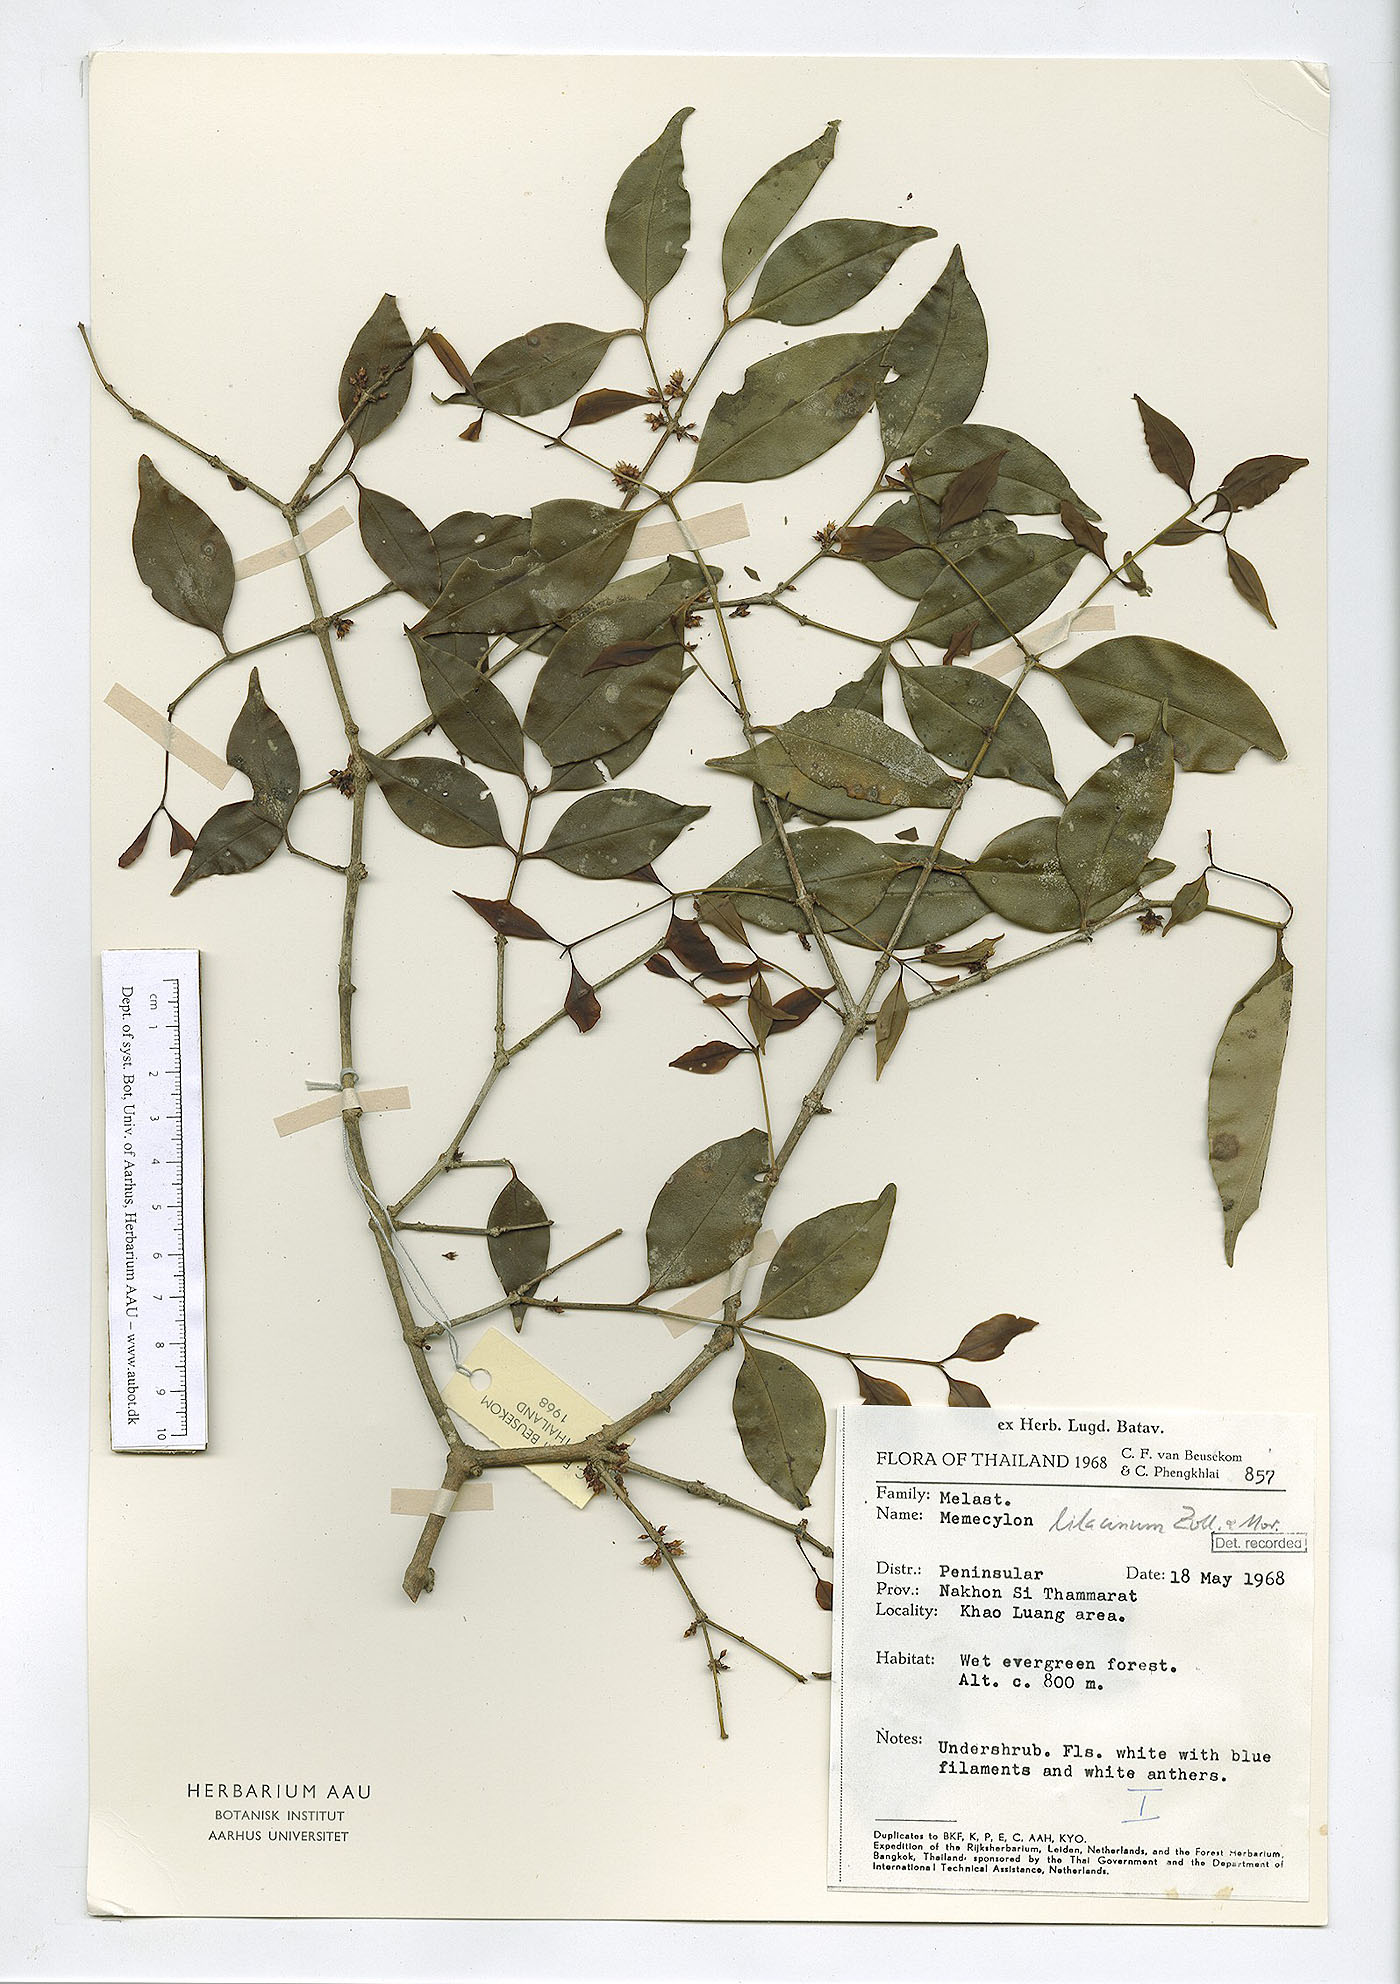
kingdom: Plantae
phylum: Tracheophyta
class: Magnoliopsida
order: Myrtales
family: Melastomataceae
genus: Memecylon
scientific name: Memecylon lilacinum
